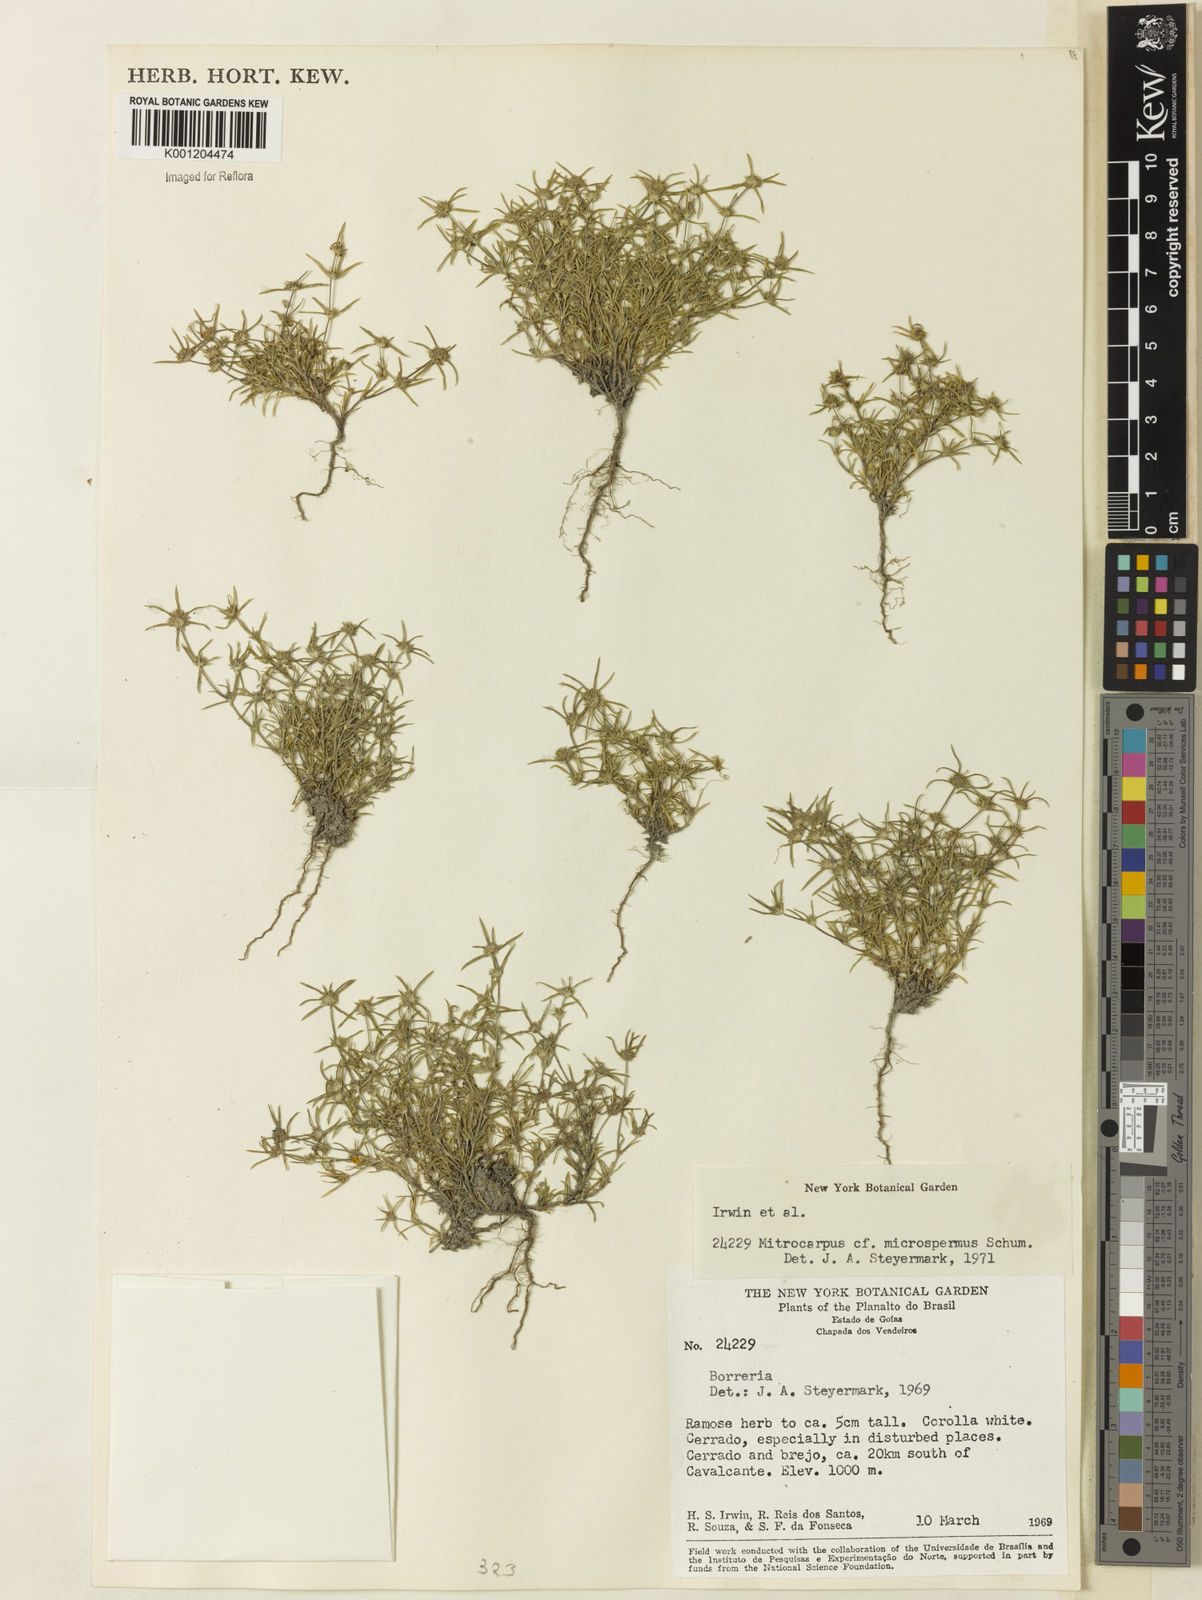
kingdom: Plantae
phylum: Tracheophyta
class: Magnoliopsida
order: Gentianales
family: Rubiaceae
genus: Mitracarpus
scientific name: Mitracarpus microspermus
